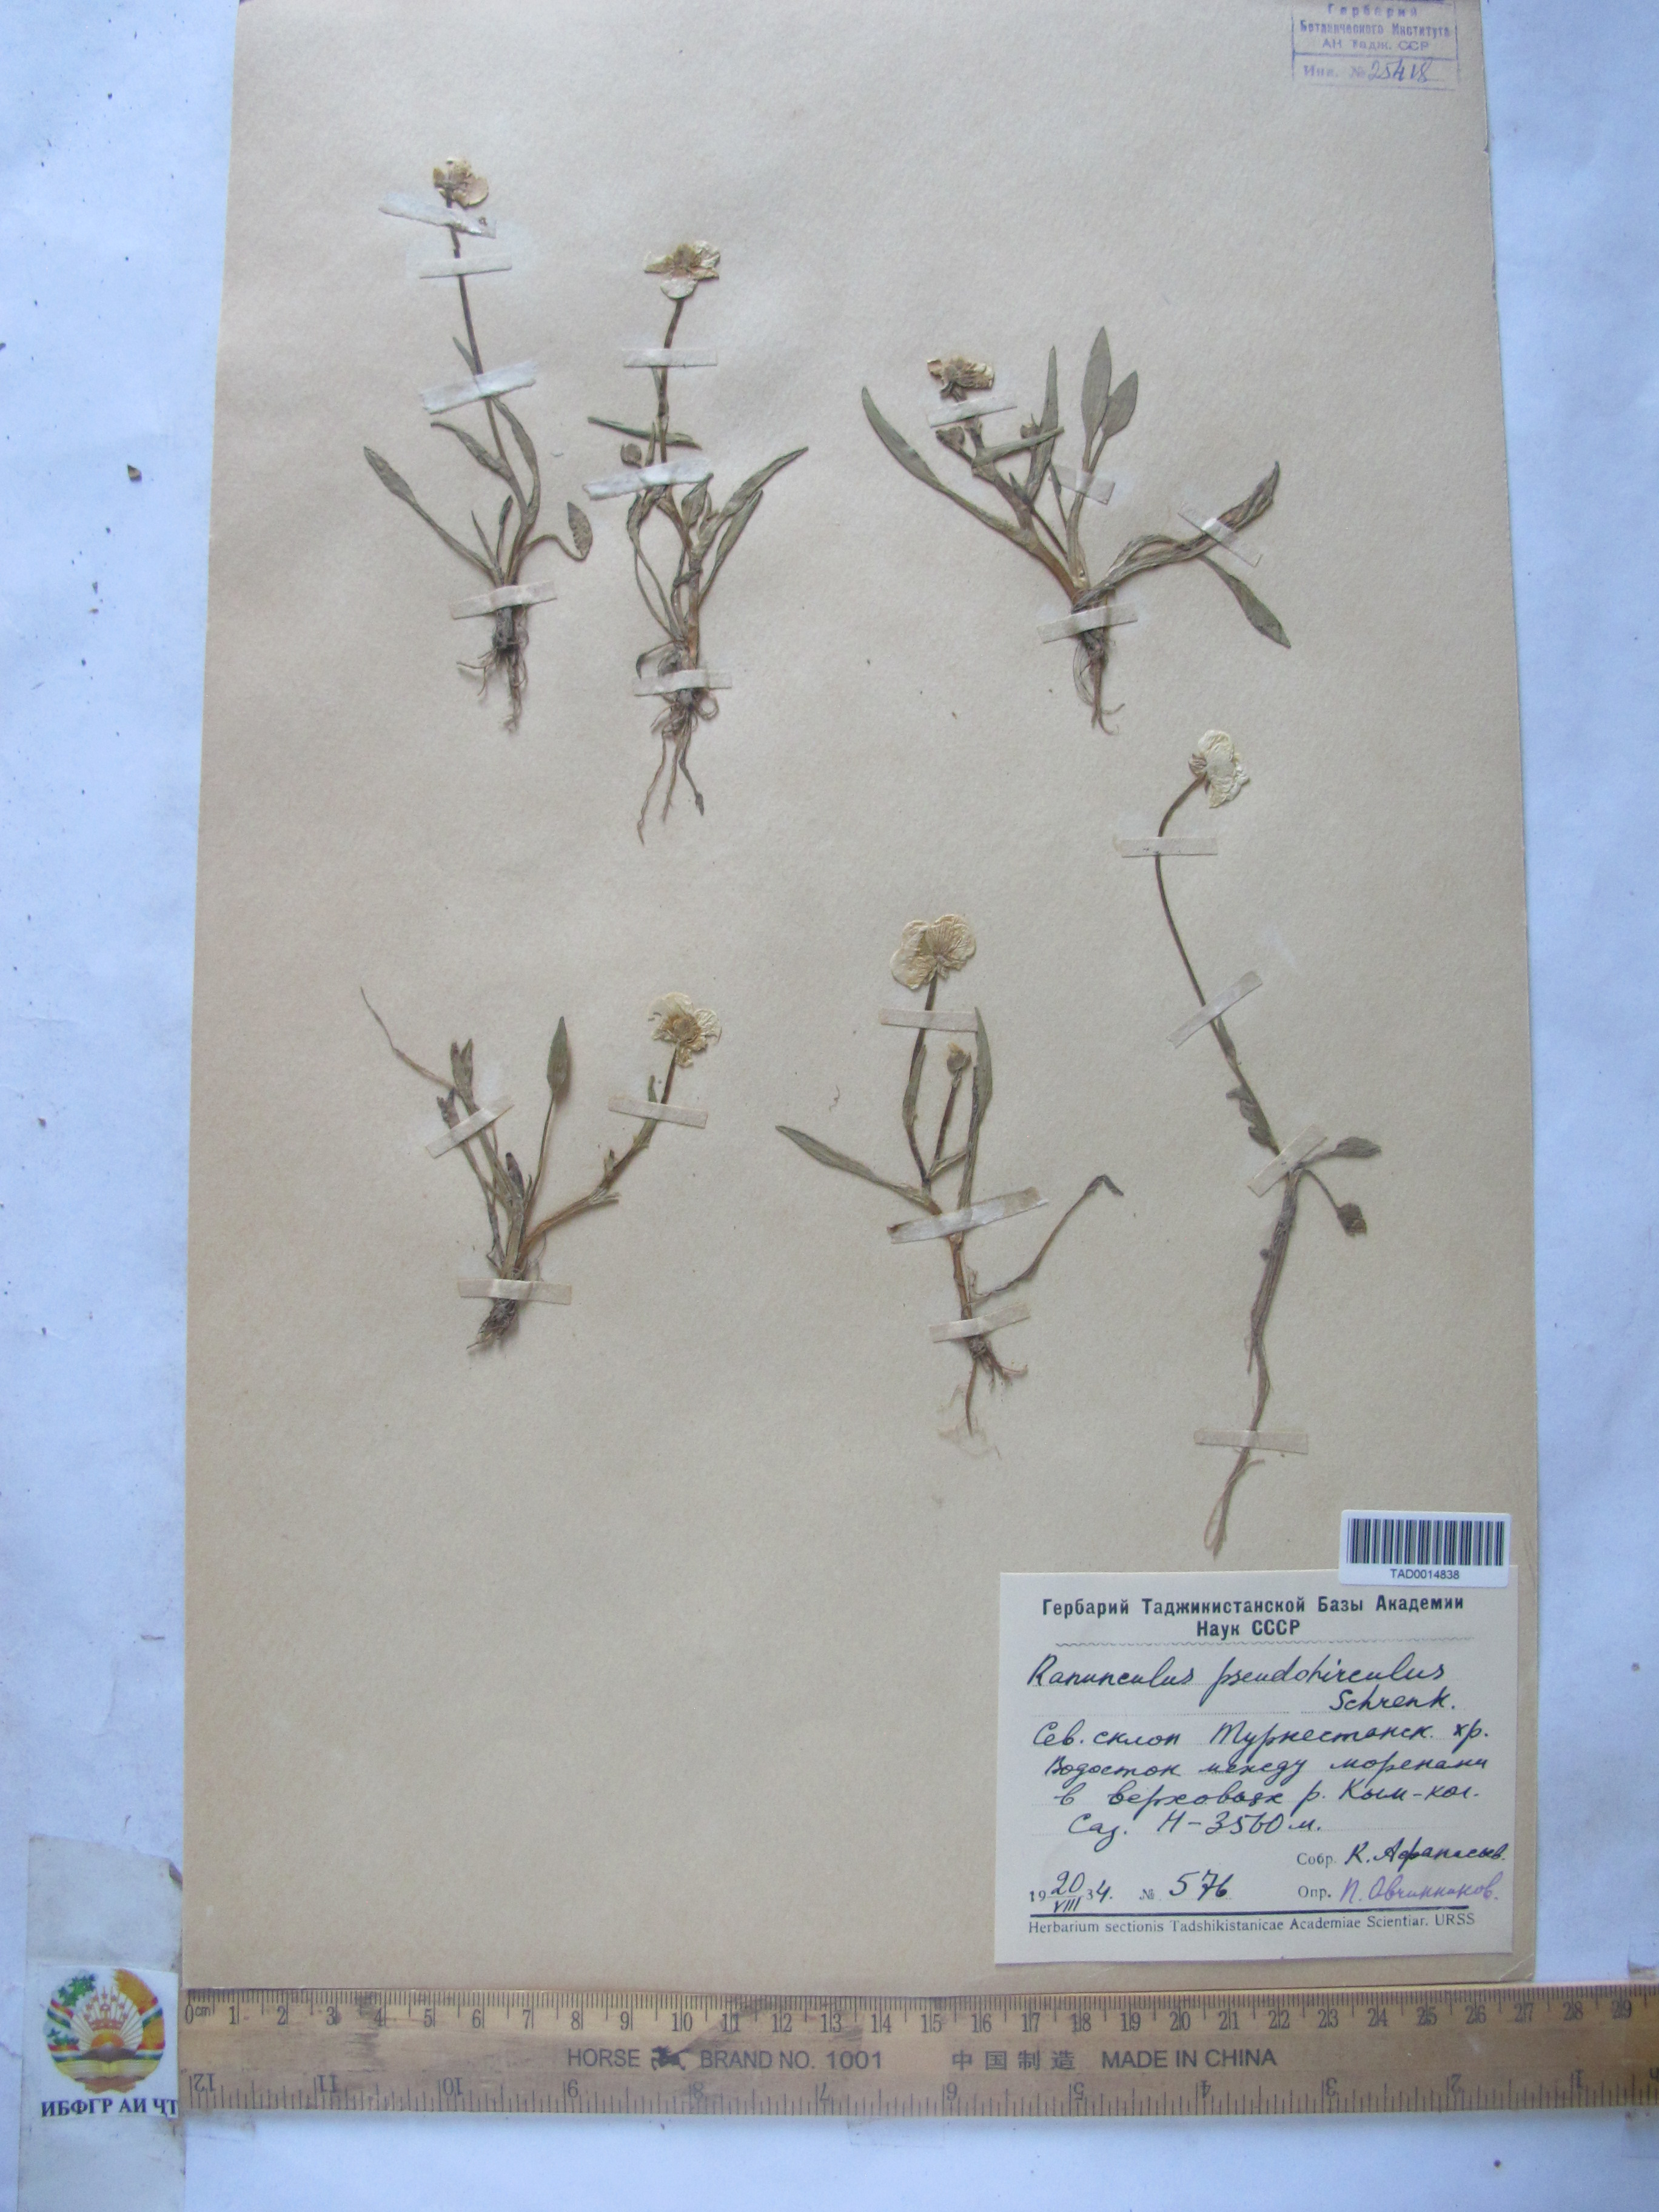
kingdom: Plantae
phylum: Tracheophyta
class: Magnoliopsida
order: Ranunculales
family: Ranunculaceae
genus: Ranunculus
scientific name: Ranunculus pseudohirculus
